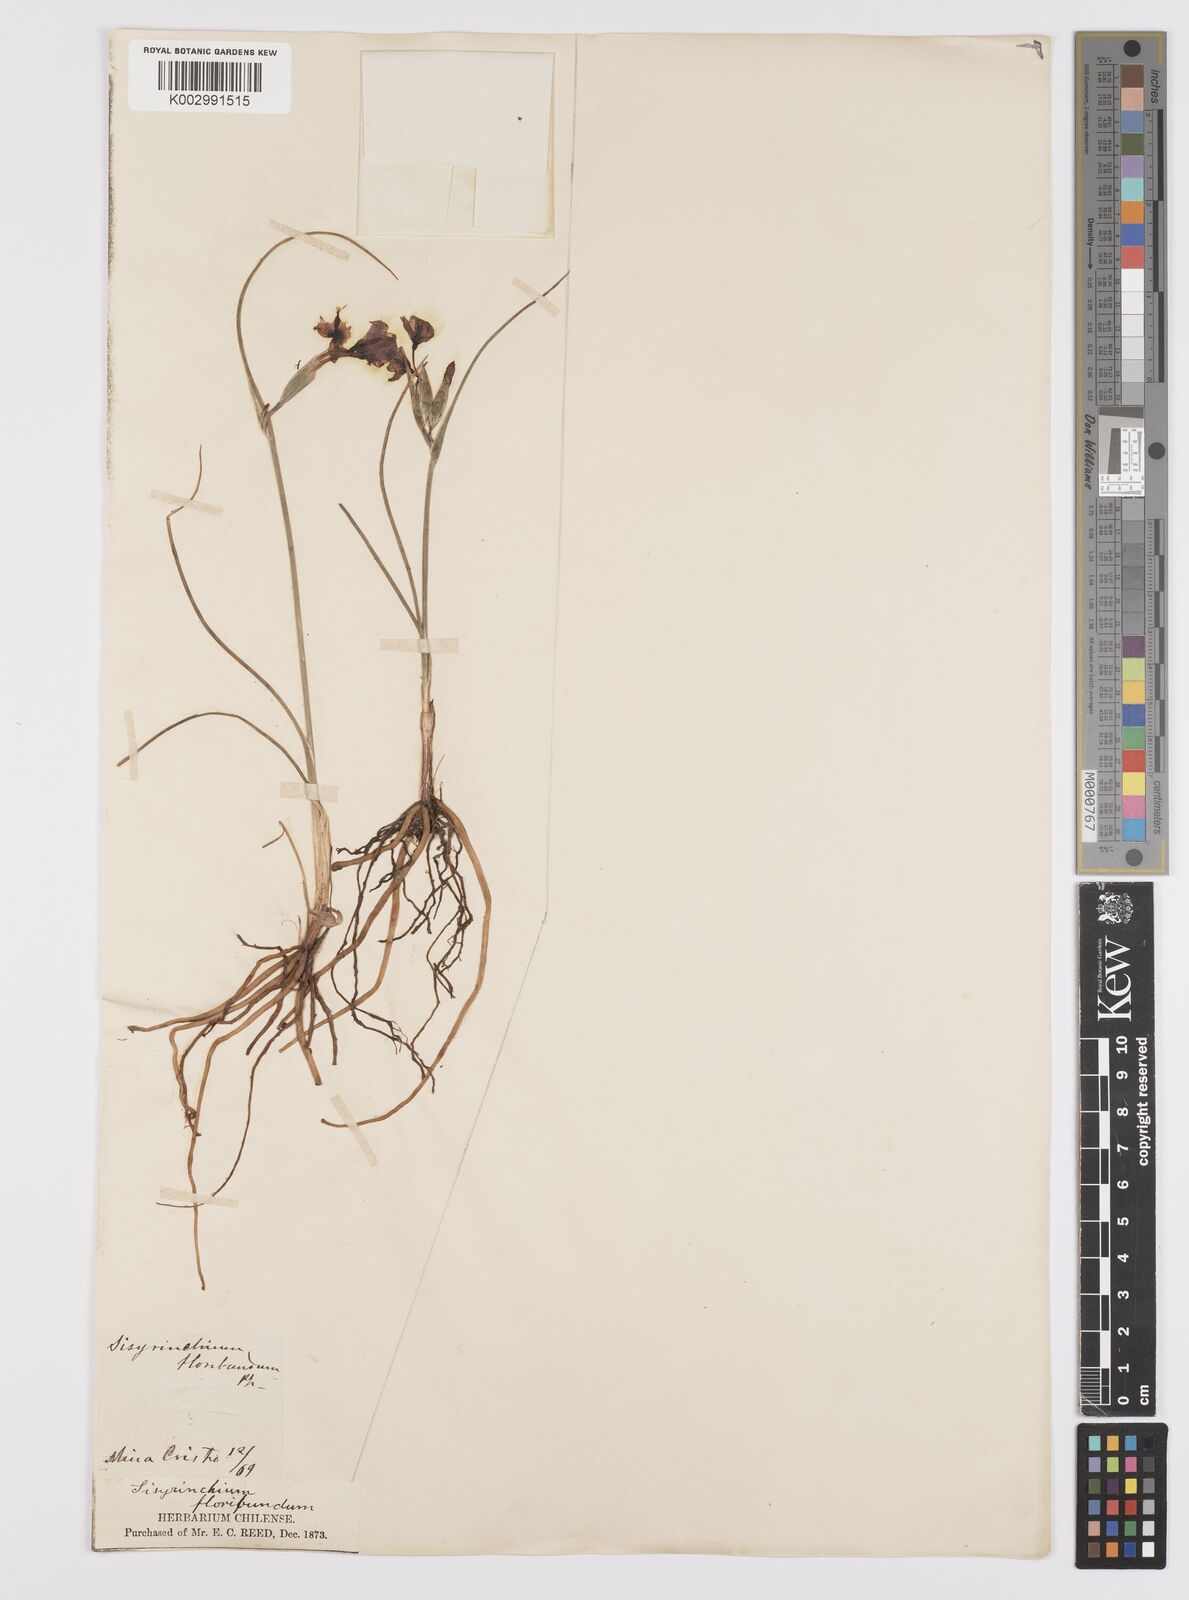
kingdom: Plantae
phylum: Tracheophyta
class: Liliopsida
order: Asparagales
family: Iridaceae
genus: Olsynium
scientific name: Olsynium junceum
